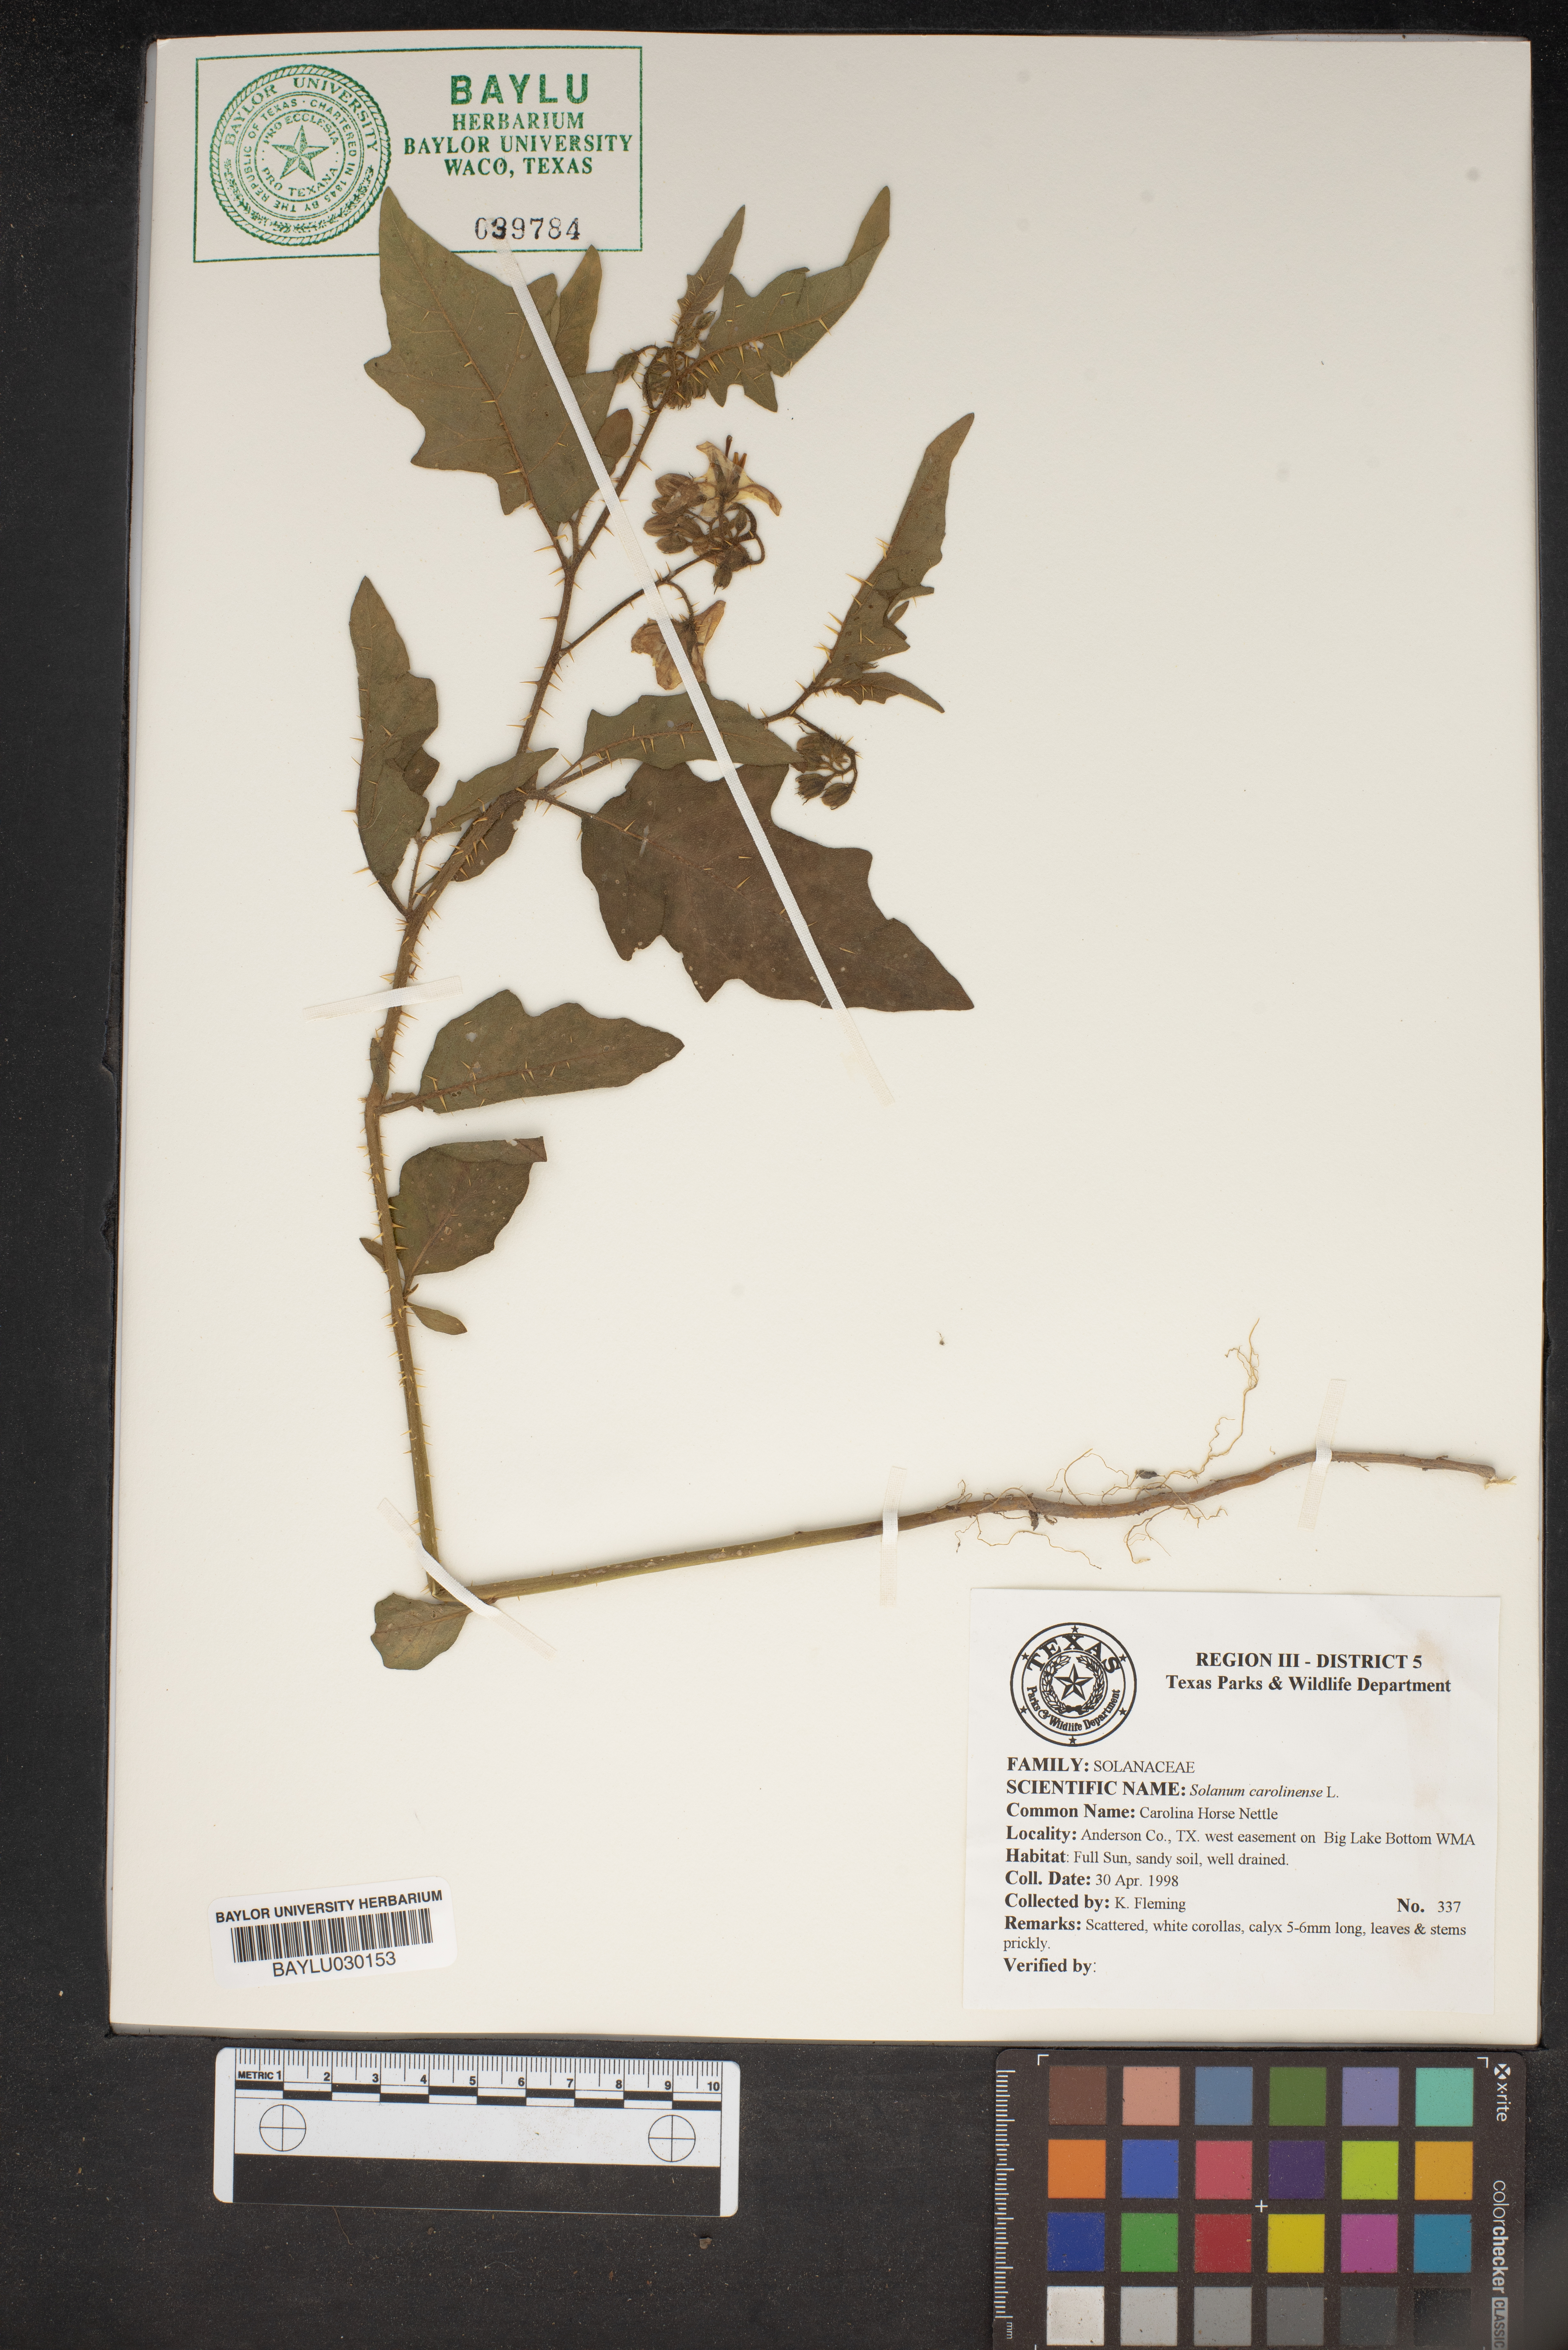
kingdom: Plantae
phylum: Tracheophyta
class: Magnoliopsida
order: Solanales
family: Solanaceae
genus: Solanum
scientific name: Solanum carolinense
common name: Horse-nettle
